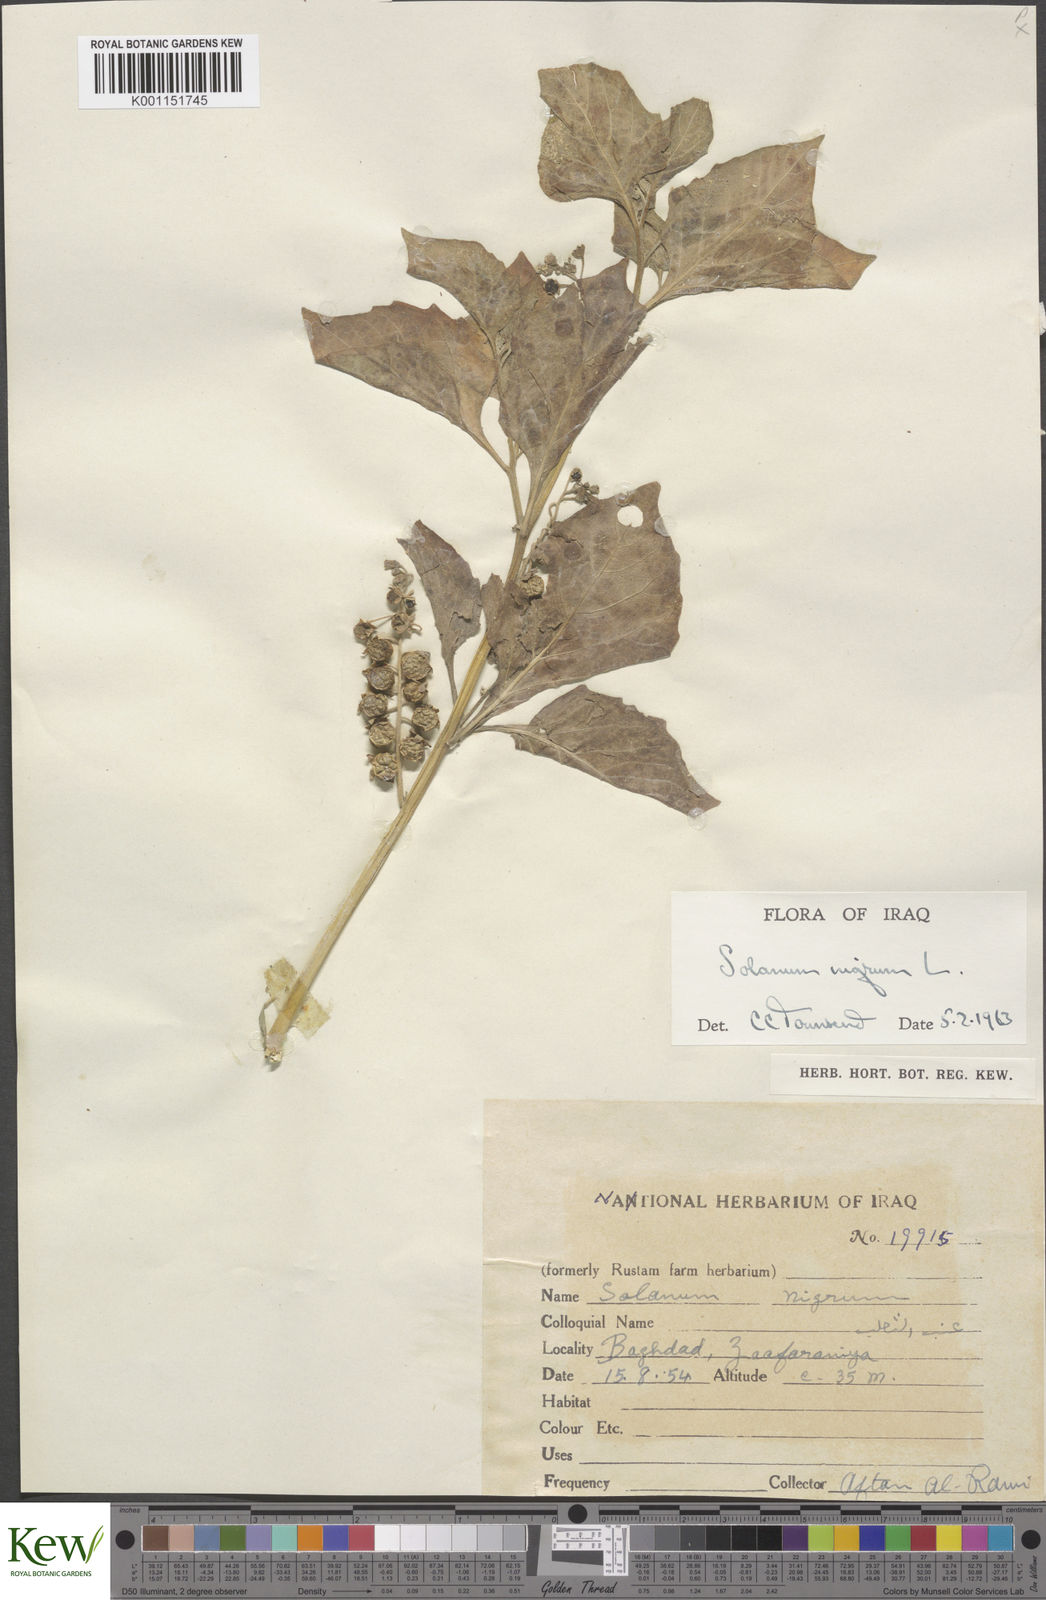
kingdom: Plantae
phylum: Tracheophyta
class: Magnoliopsida
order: Solanales
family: Solanaceae
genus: Solanum
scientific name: Solanum nigrum
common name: Black nightshade
